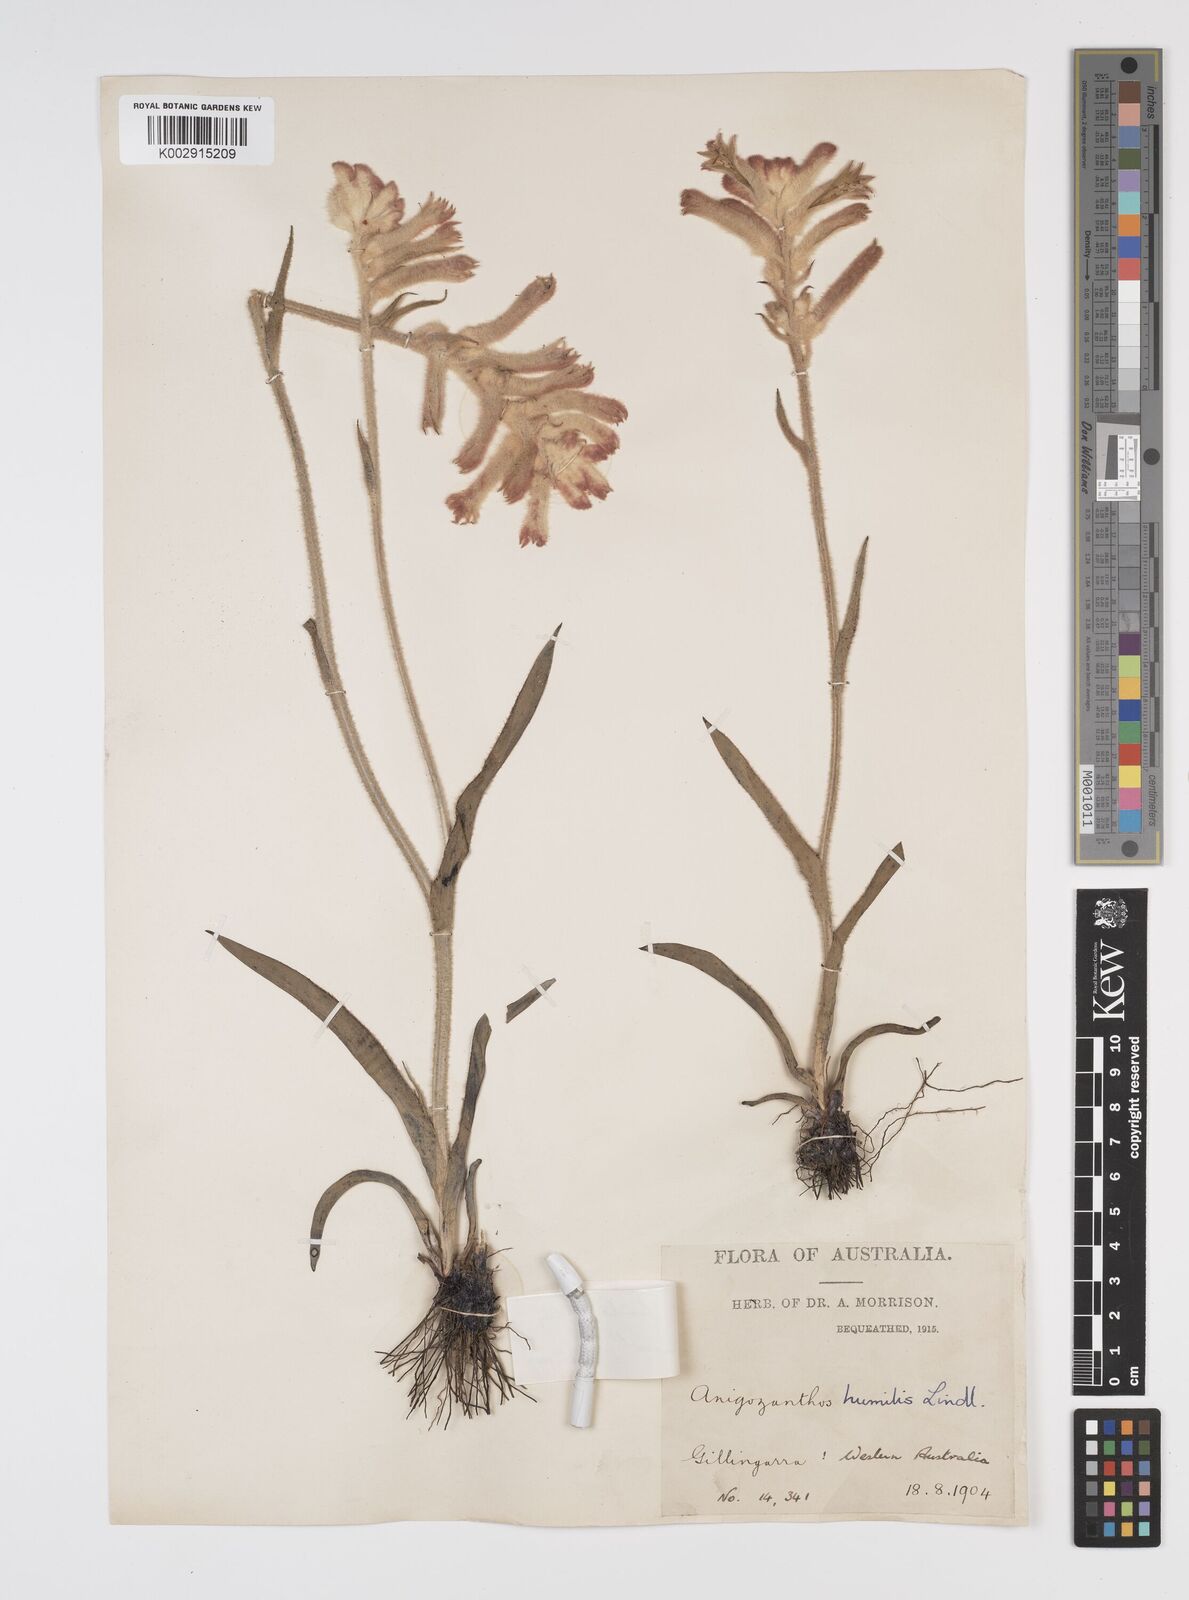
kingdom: Plantae
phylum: Tracheophyta
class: Liliopsida
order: Commelinales
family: Haemodoraceae
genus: Anigozanthos
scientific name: Anigozanthos humilis
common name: Cat's-paw
